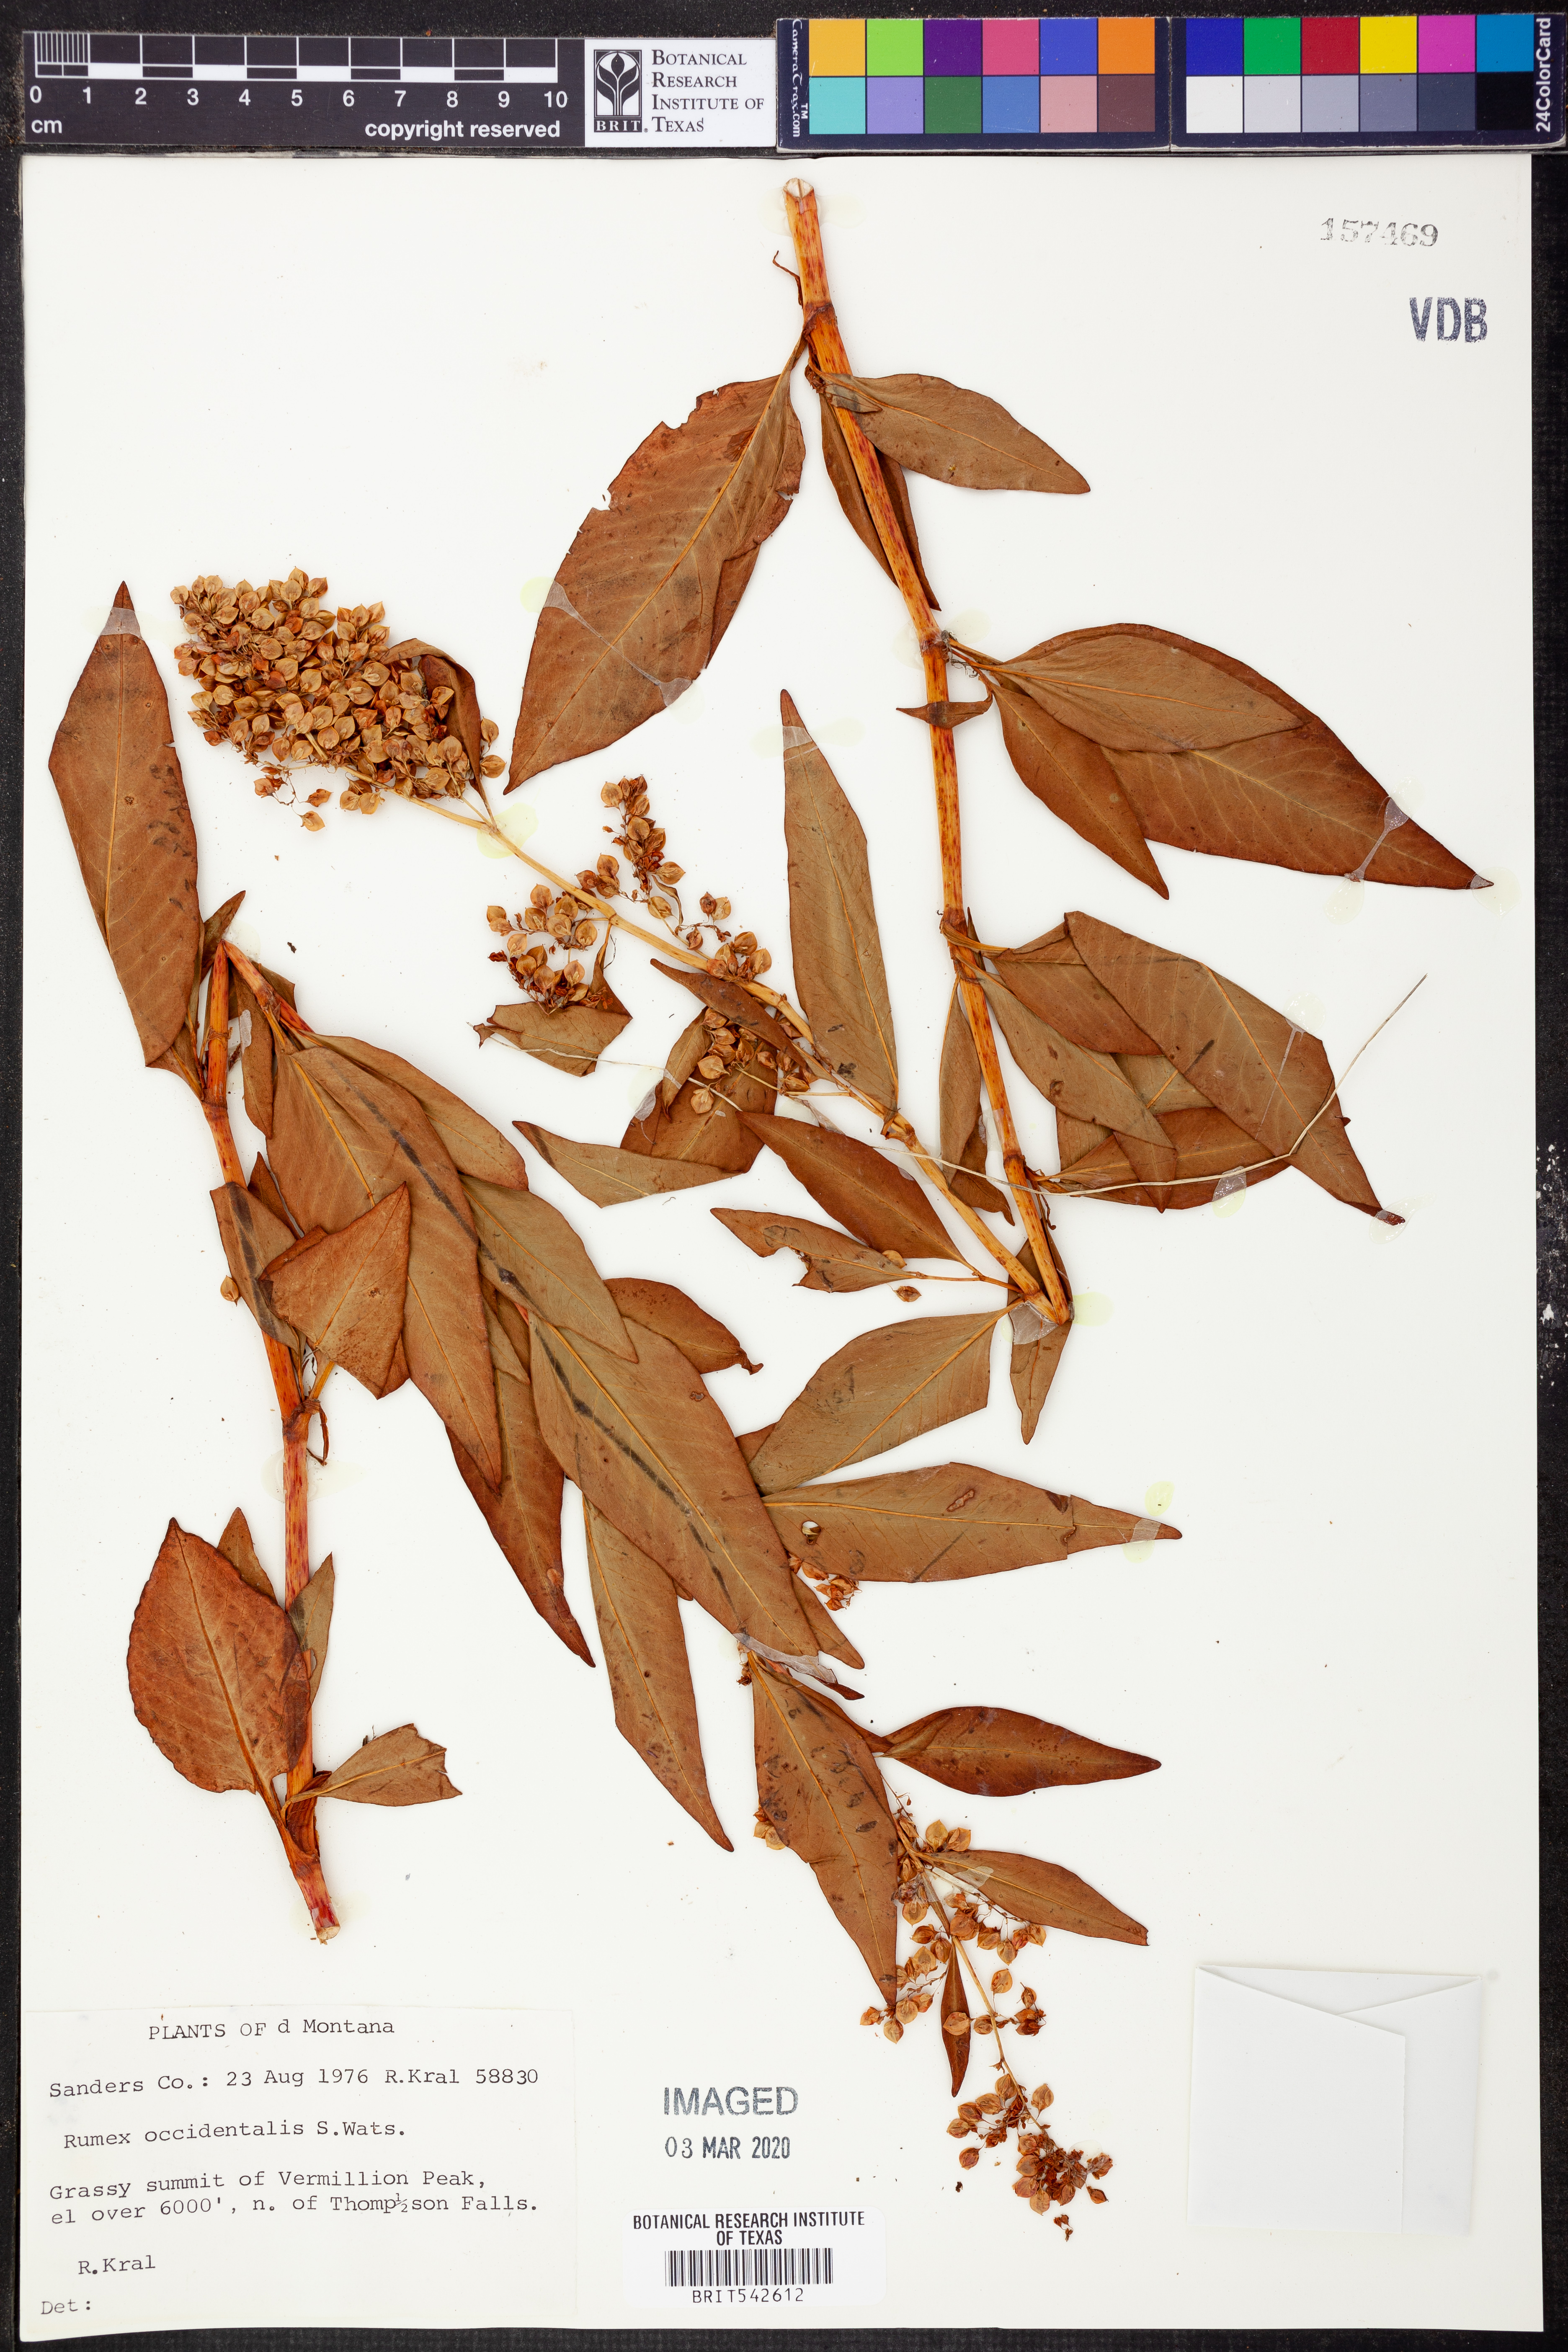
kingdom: Plantae
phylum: Tracheophyta
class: Magnoliopsida
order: Caryophyllales
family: Polygonaceae
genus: Rumex
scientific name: Rumex occidentalis
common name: Western dock
